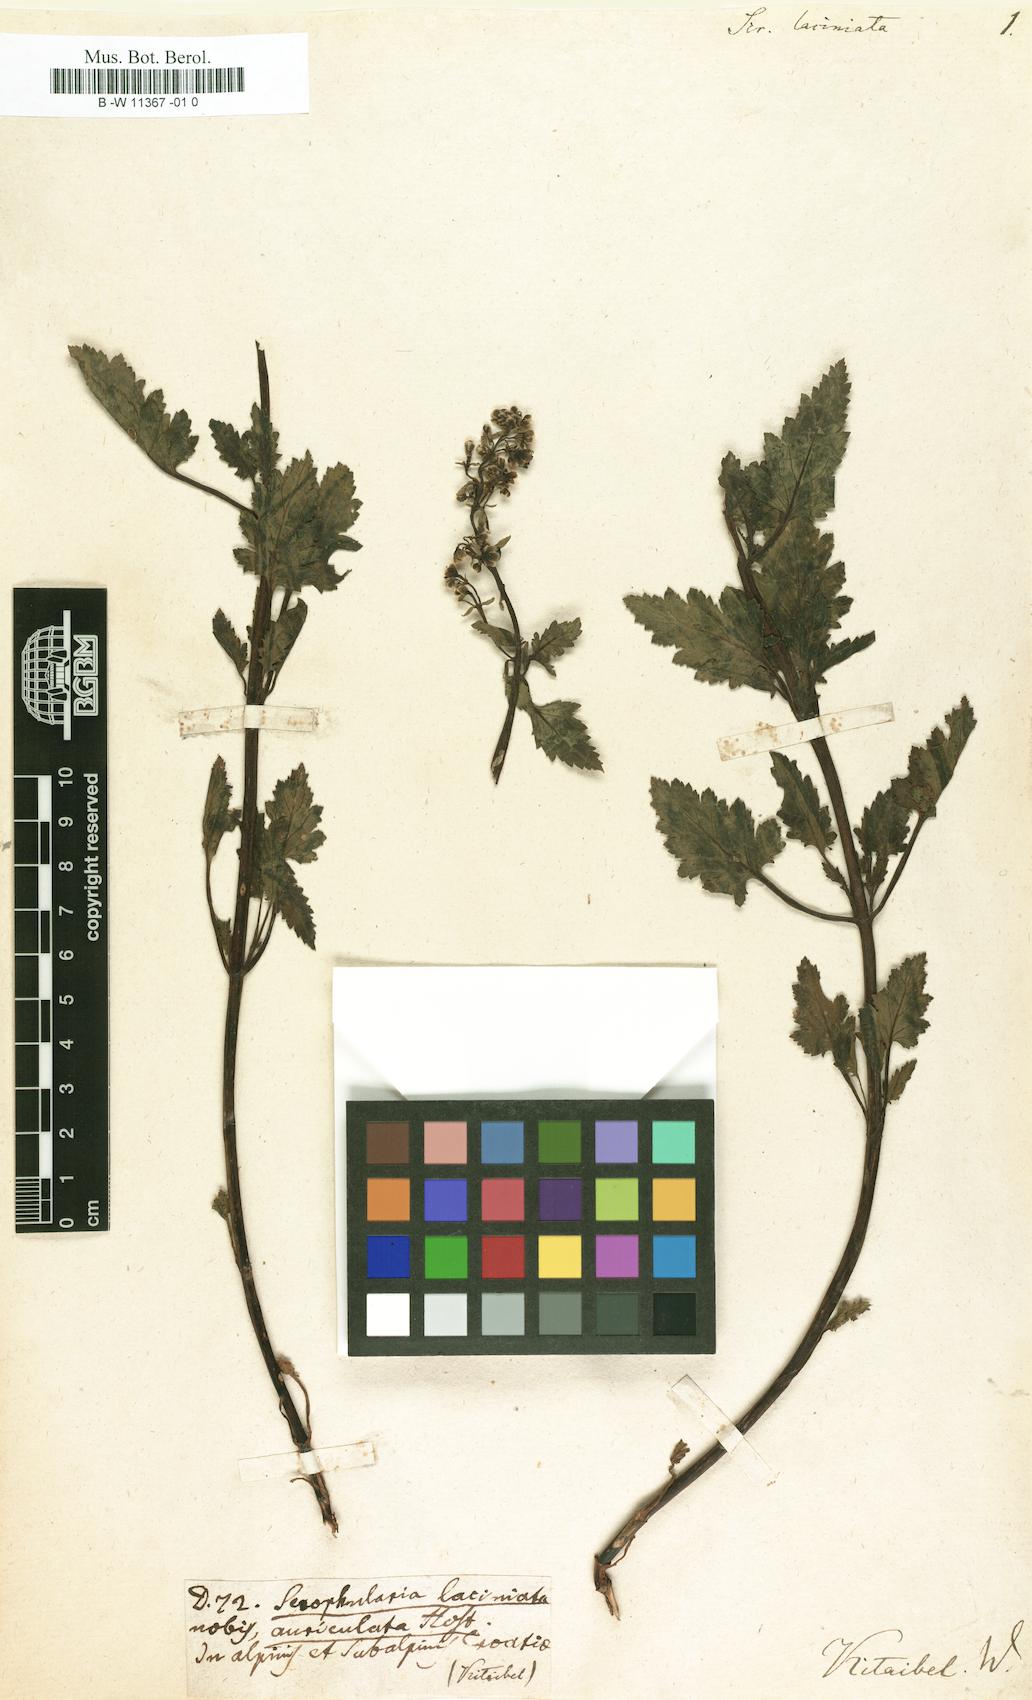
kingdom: Plantae
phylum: Tracheophyta
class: Magnoliopsida
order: Lamiales
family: Scrophulariaceae
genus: Scrophularia
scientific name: Scrophularia laciniata
